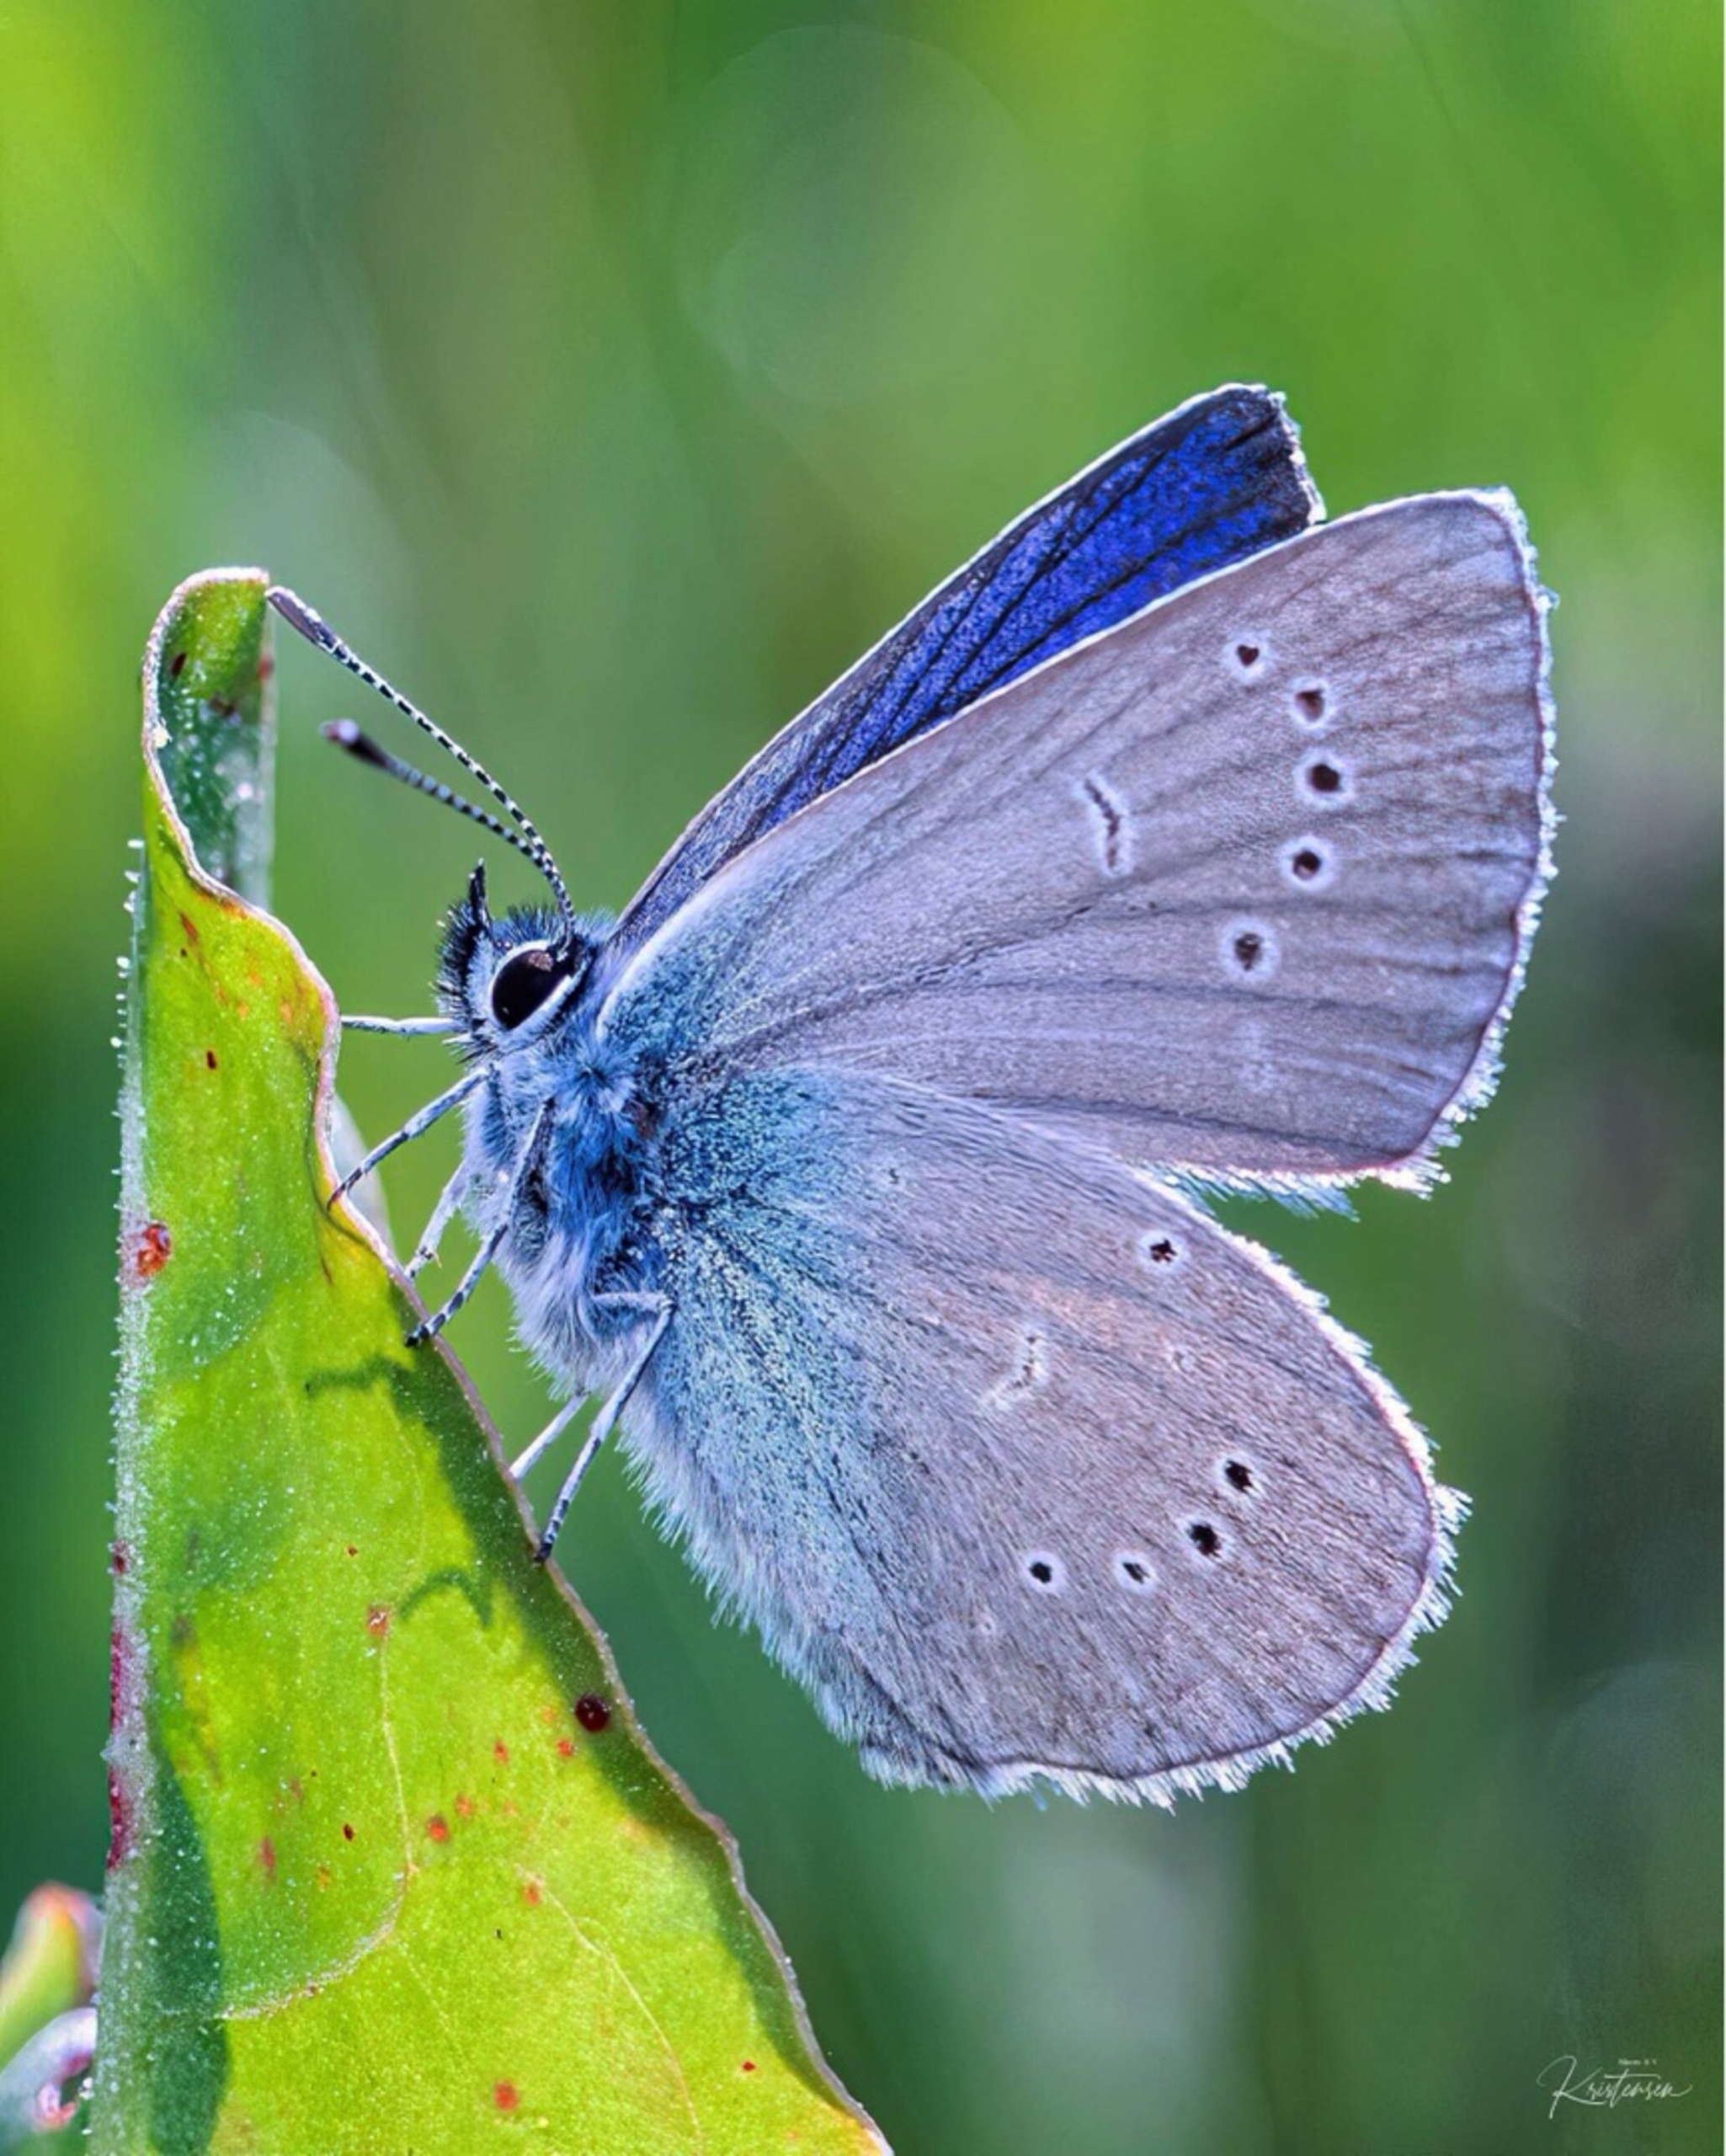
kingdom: Animalia
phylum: Arthropoda
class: Insecta
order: Lepidoptera
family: Lycaenidae
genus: Cyaniris
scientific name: Cyaniris semiargus
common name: Engblåfugl
